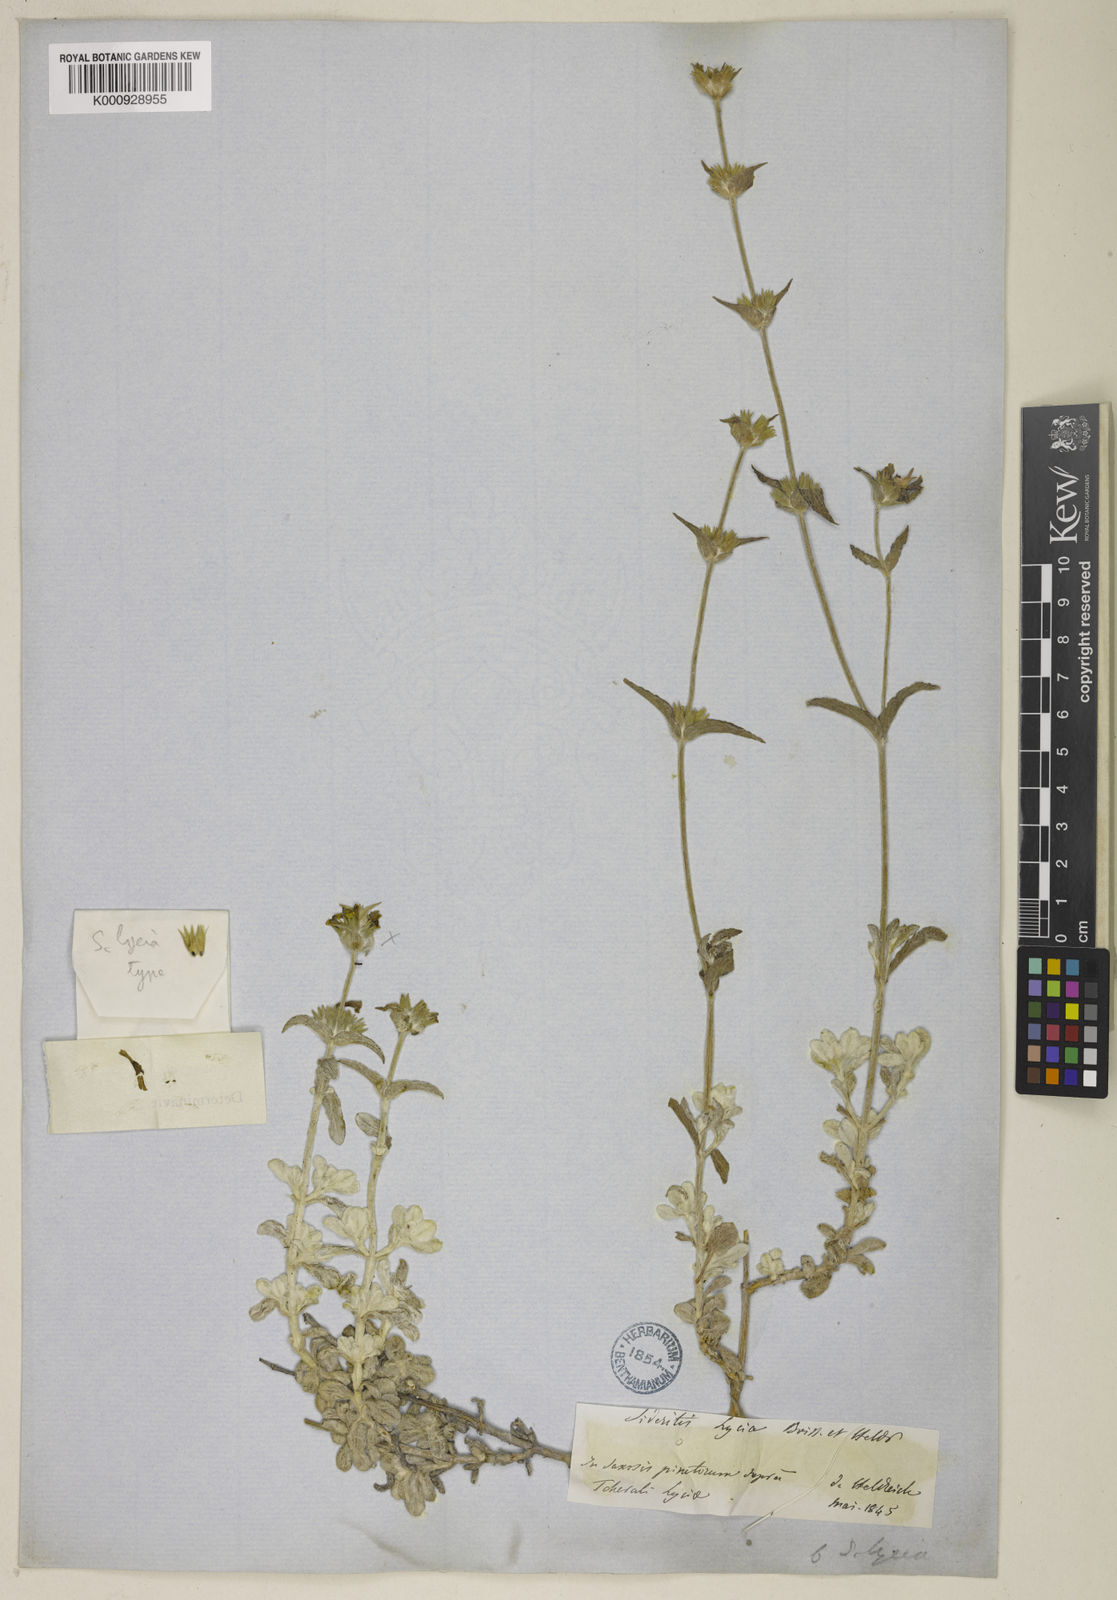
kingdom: Plantae
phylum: Tracheophyta
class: Magnoliopsida
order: Lamiales
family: Lamiaceae
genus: Sideritis
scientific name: Sideritis lycia
